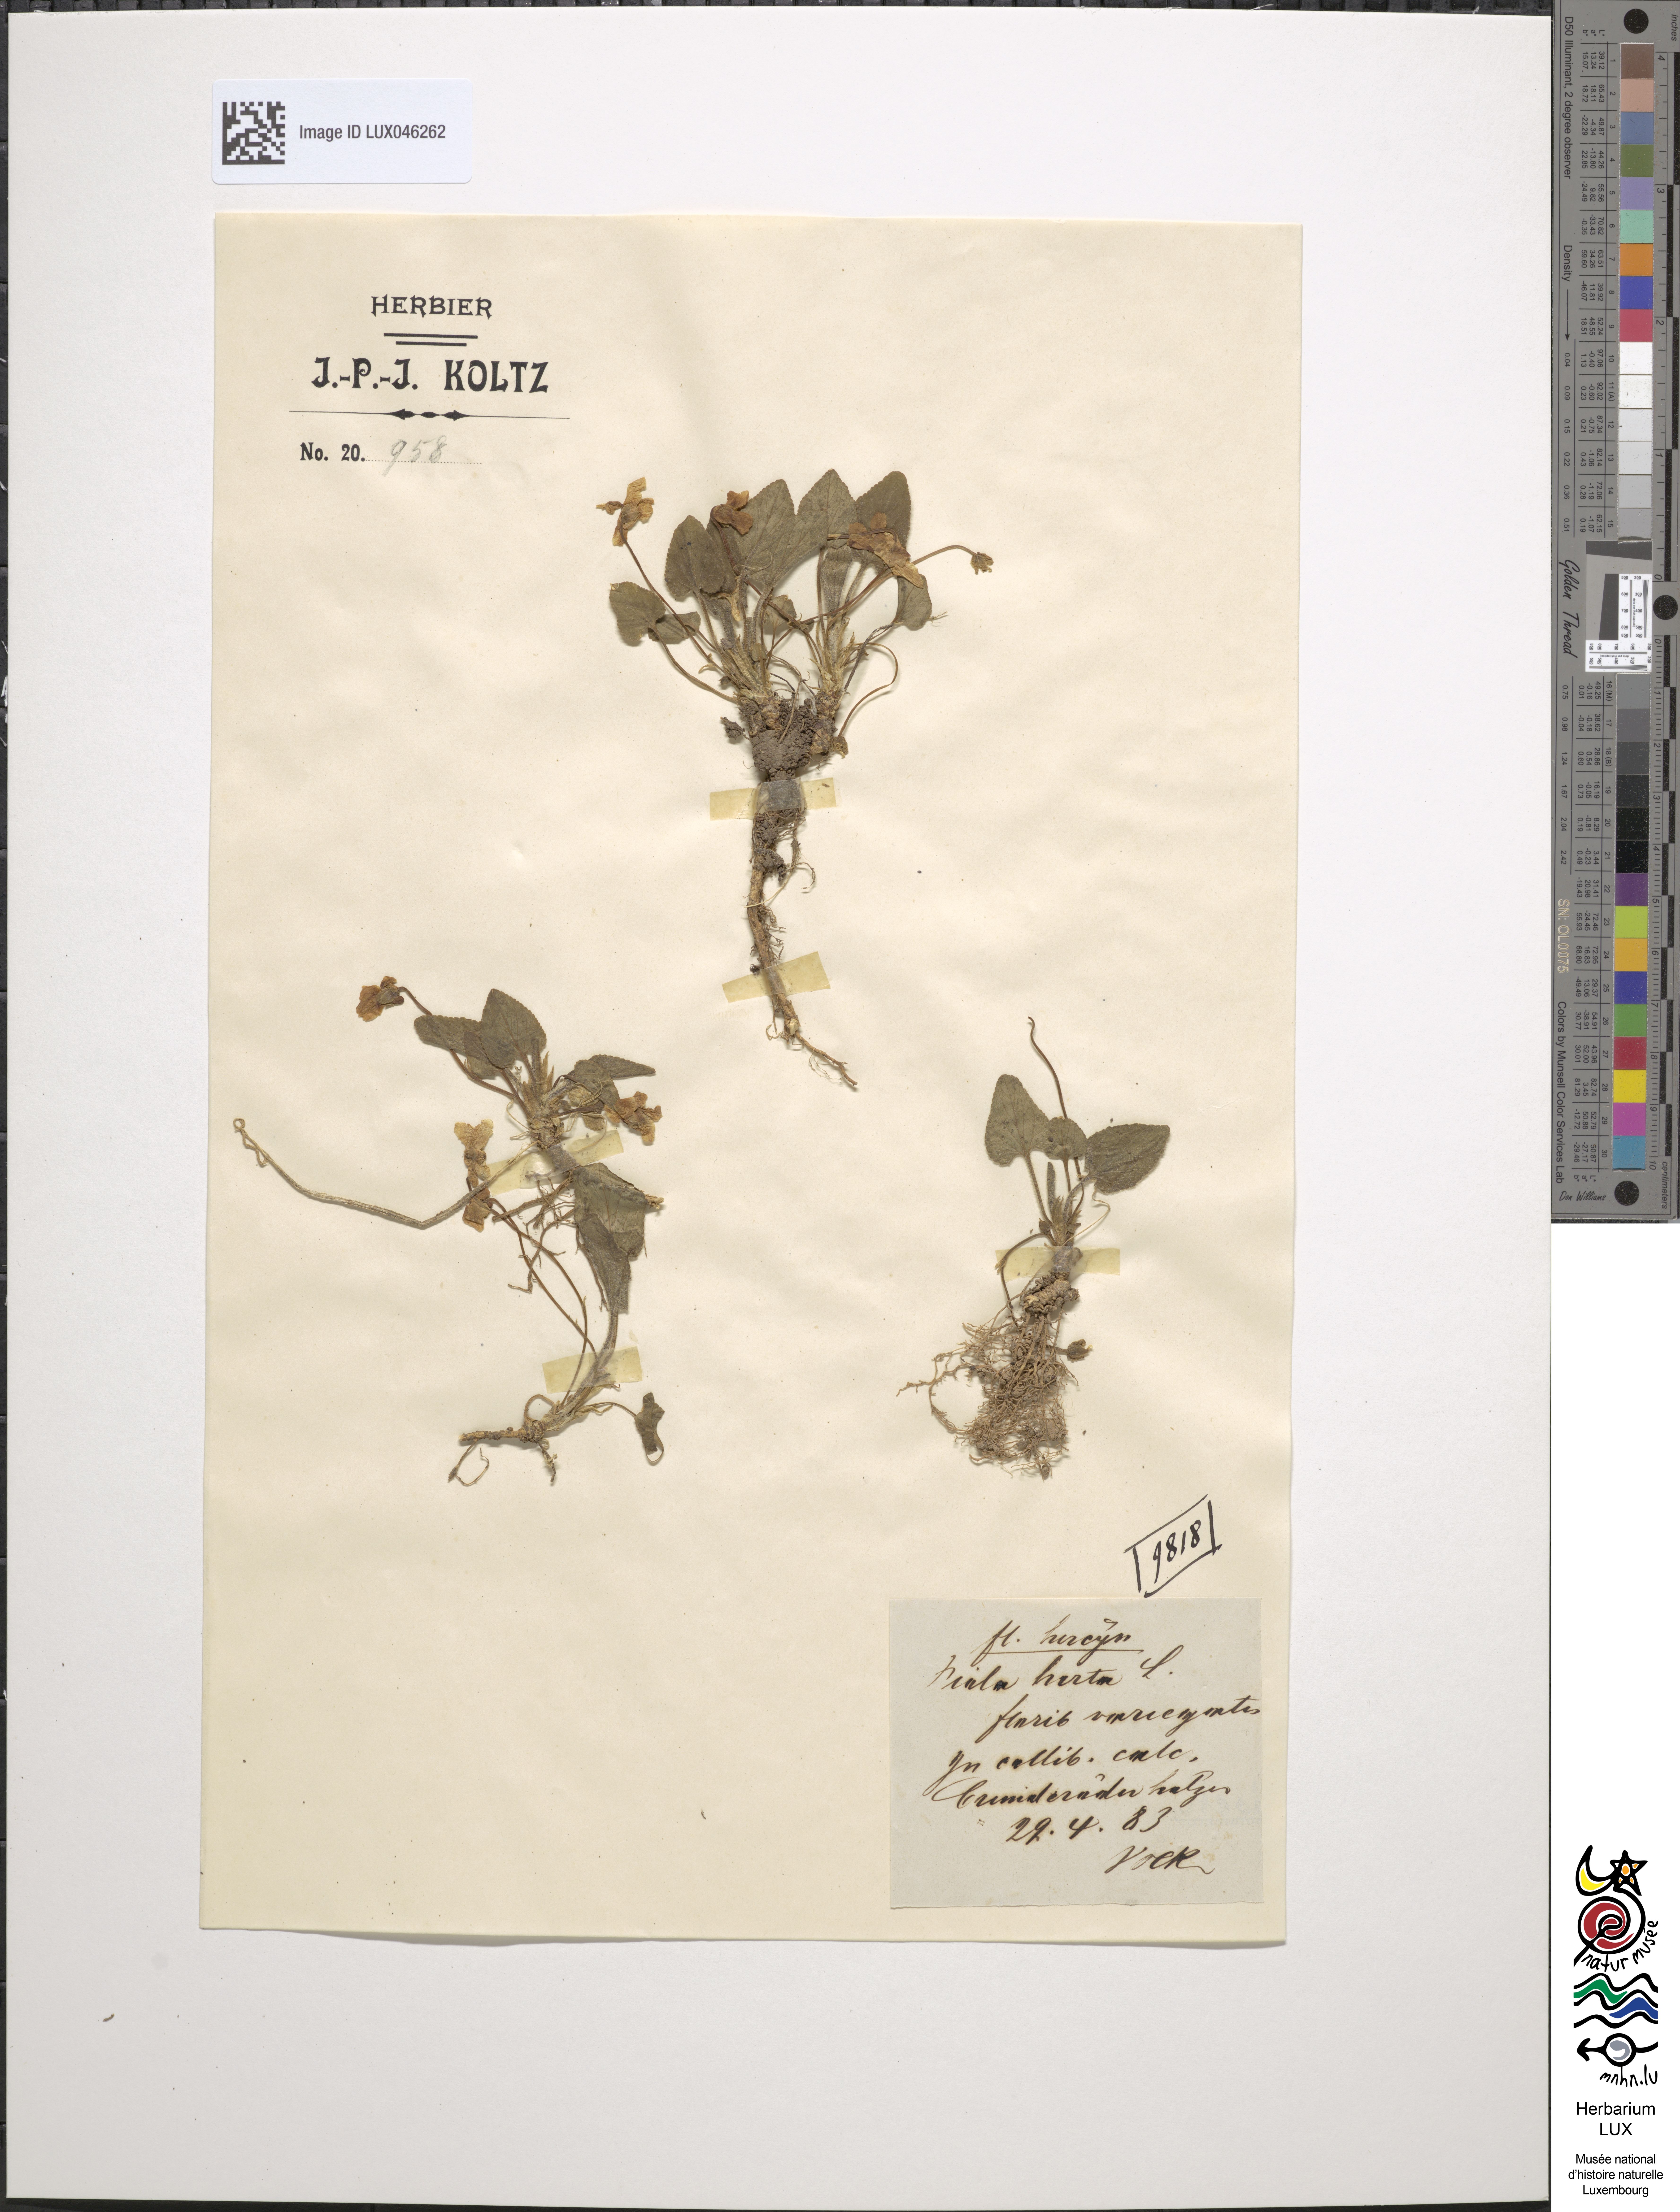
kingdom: Plantae
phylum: Tracheophyta
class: Magnoliopsida
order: Malpighiales
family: Violaceae
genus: Viola
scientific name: Viola hirta
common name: Hairy violet
